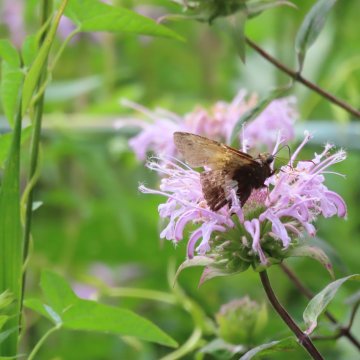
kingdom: Animalia
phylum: Arthropoda
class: Insecta
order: Lepidoptera
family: Hesperiidae
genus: Epargyreus
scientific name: Epargyreus clarus
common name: Silver-spotted Skipper
